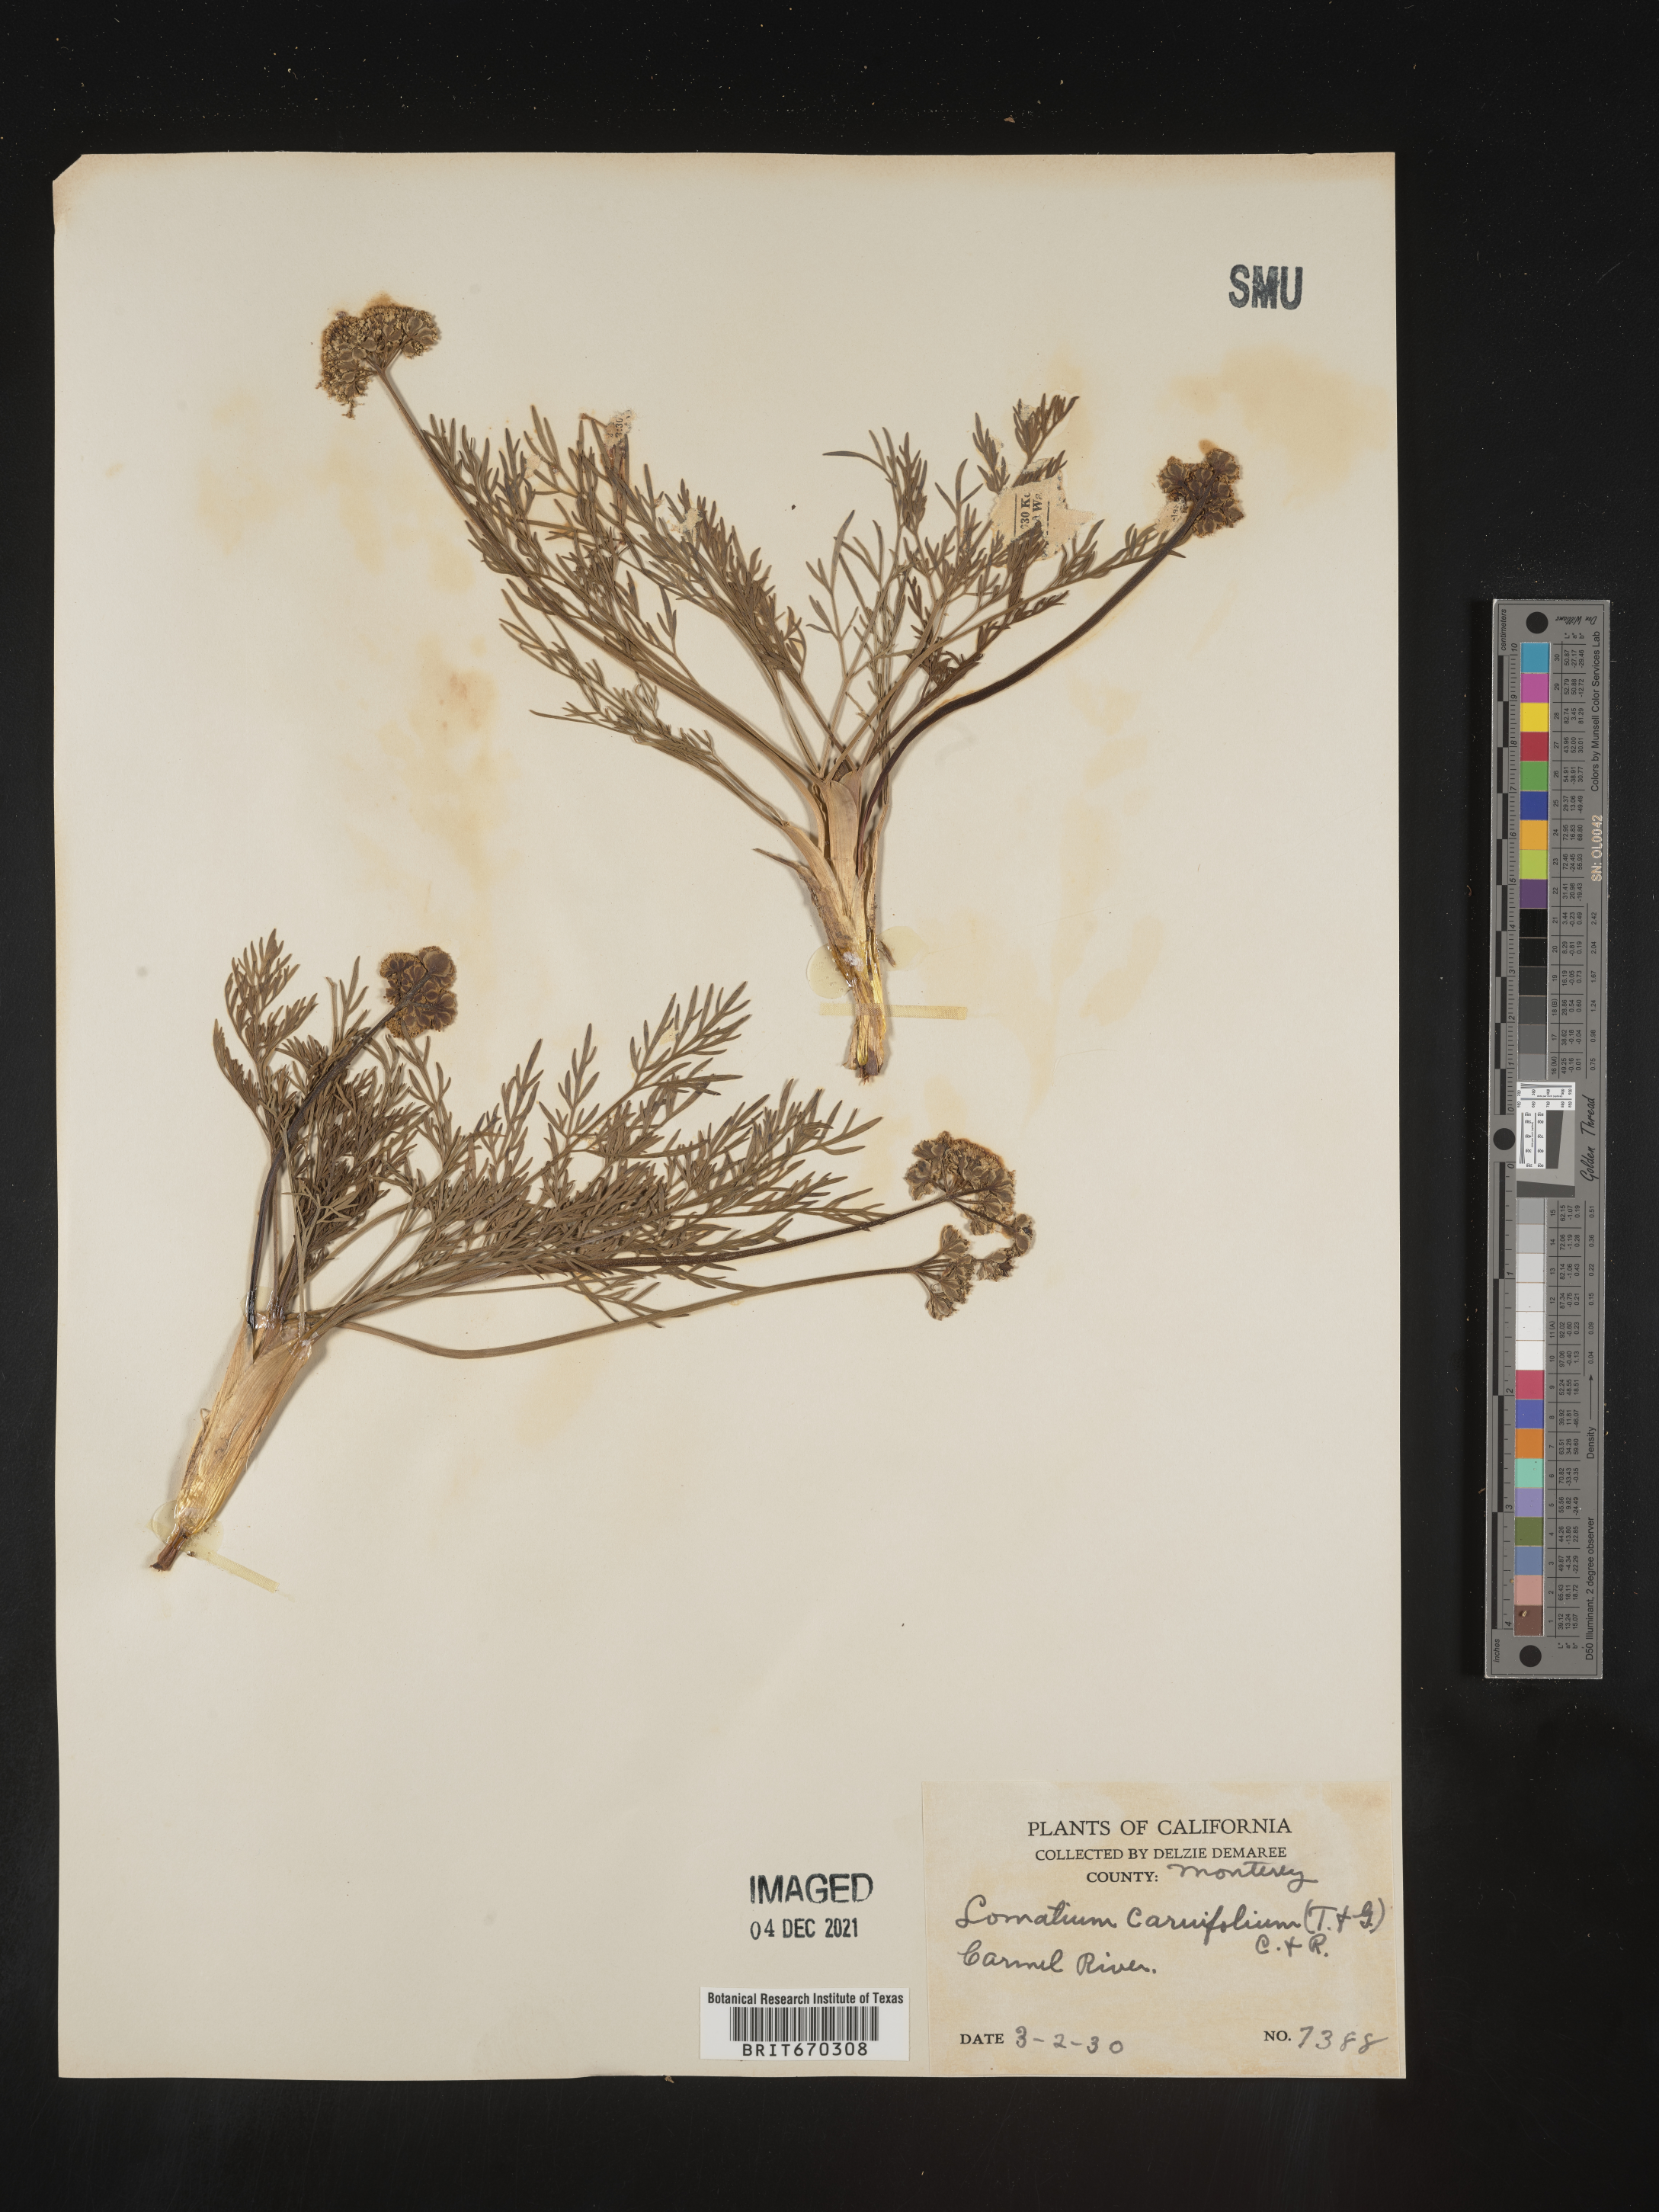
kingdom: Plantae
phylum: Tracheophyta
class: Magnoliopsida
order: Apiales
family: Apiaceae
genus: Lomatium
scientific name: Lomatium caruifolium
